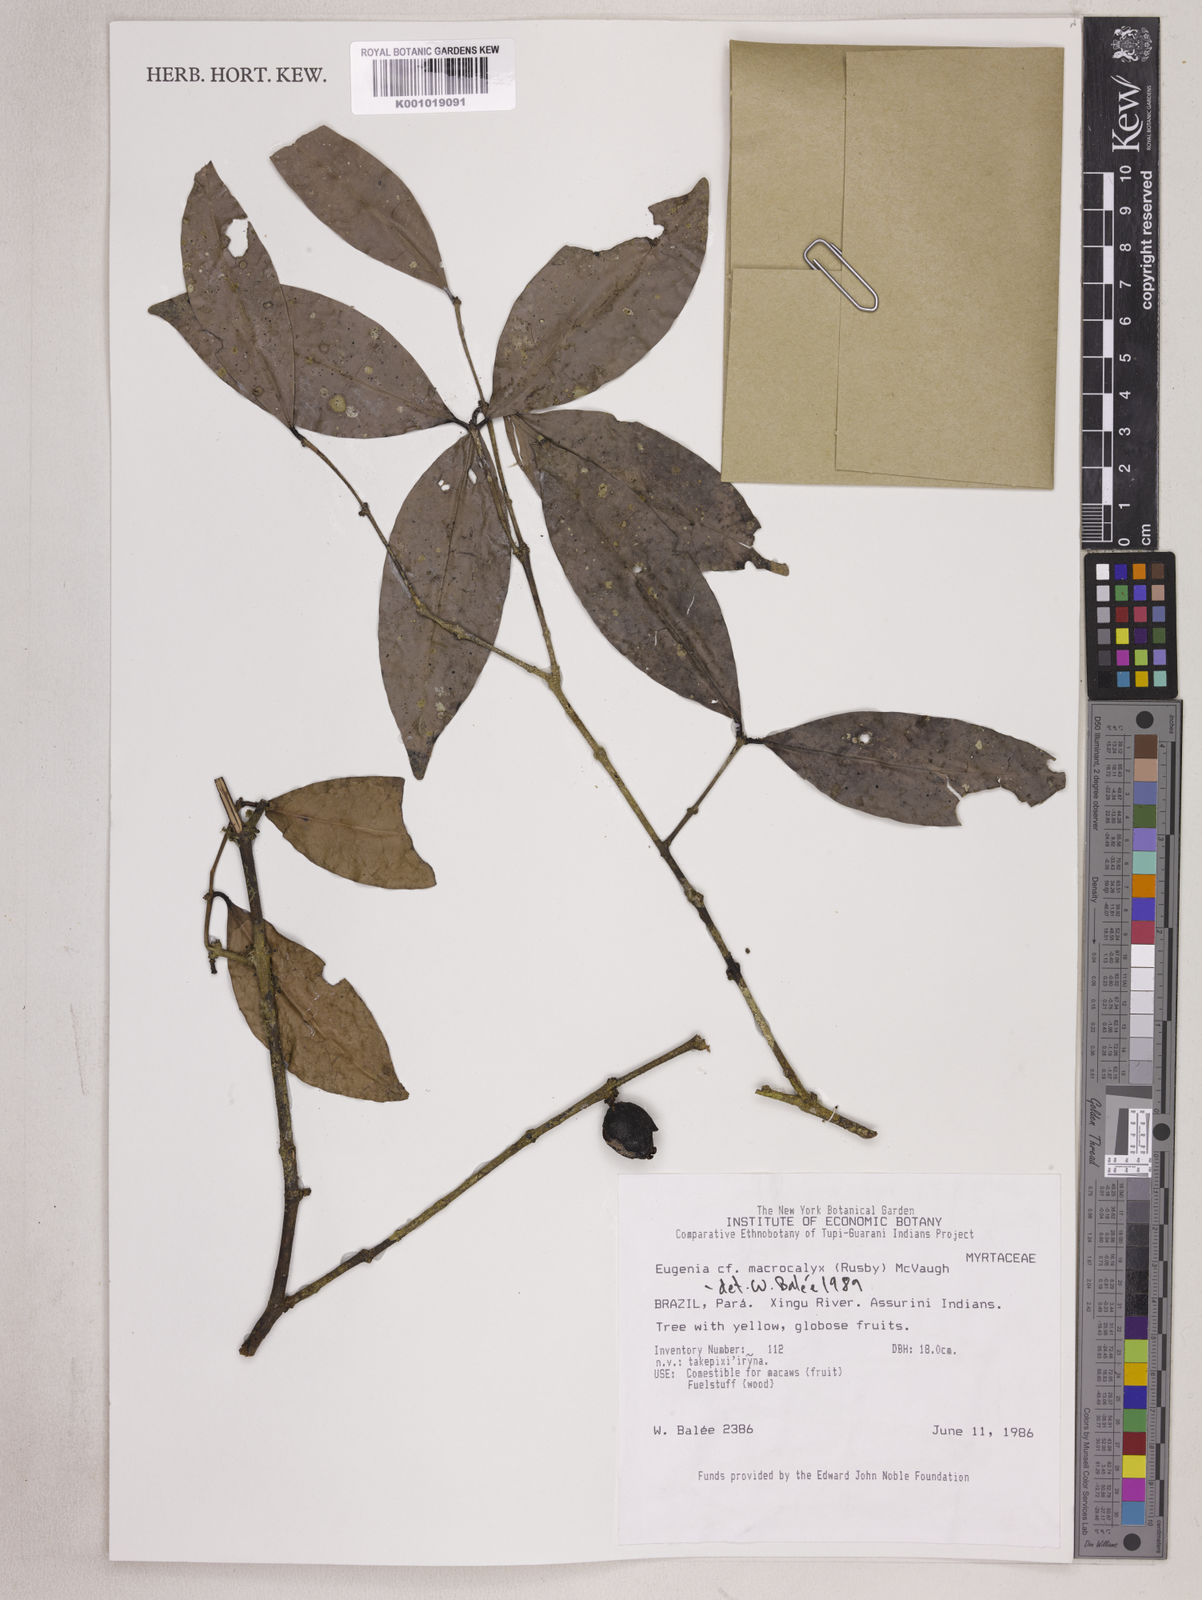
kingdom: Plantae
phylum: Tracheophyta
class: Magnoliopsida
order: Myrtales
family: Myrtaceae
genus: Eugenia
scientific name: Eugenia wentii
